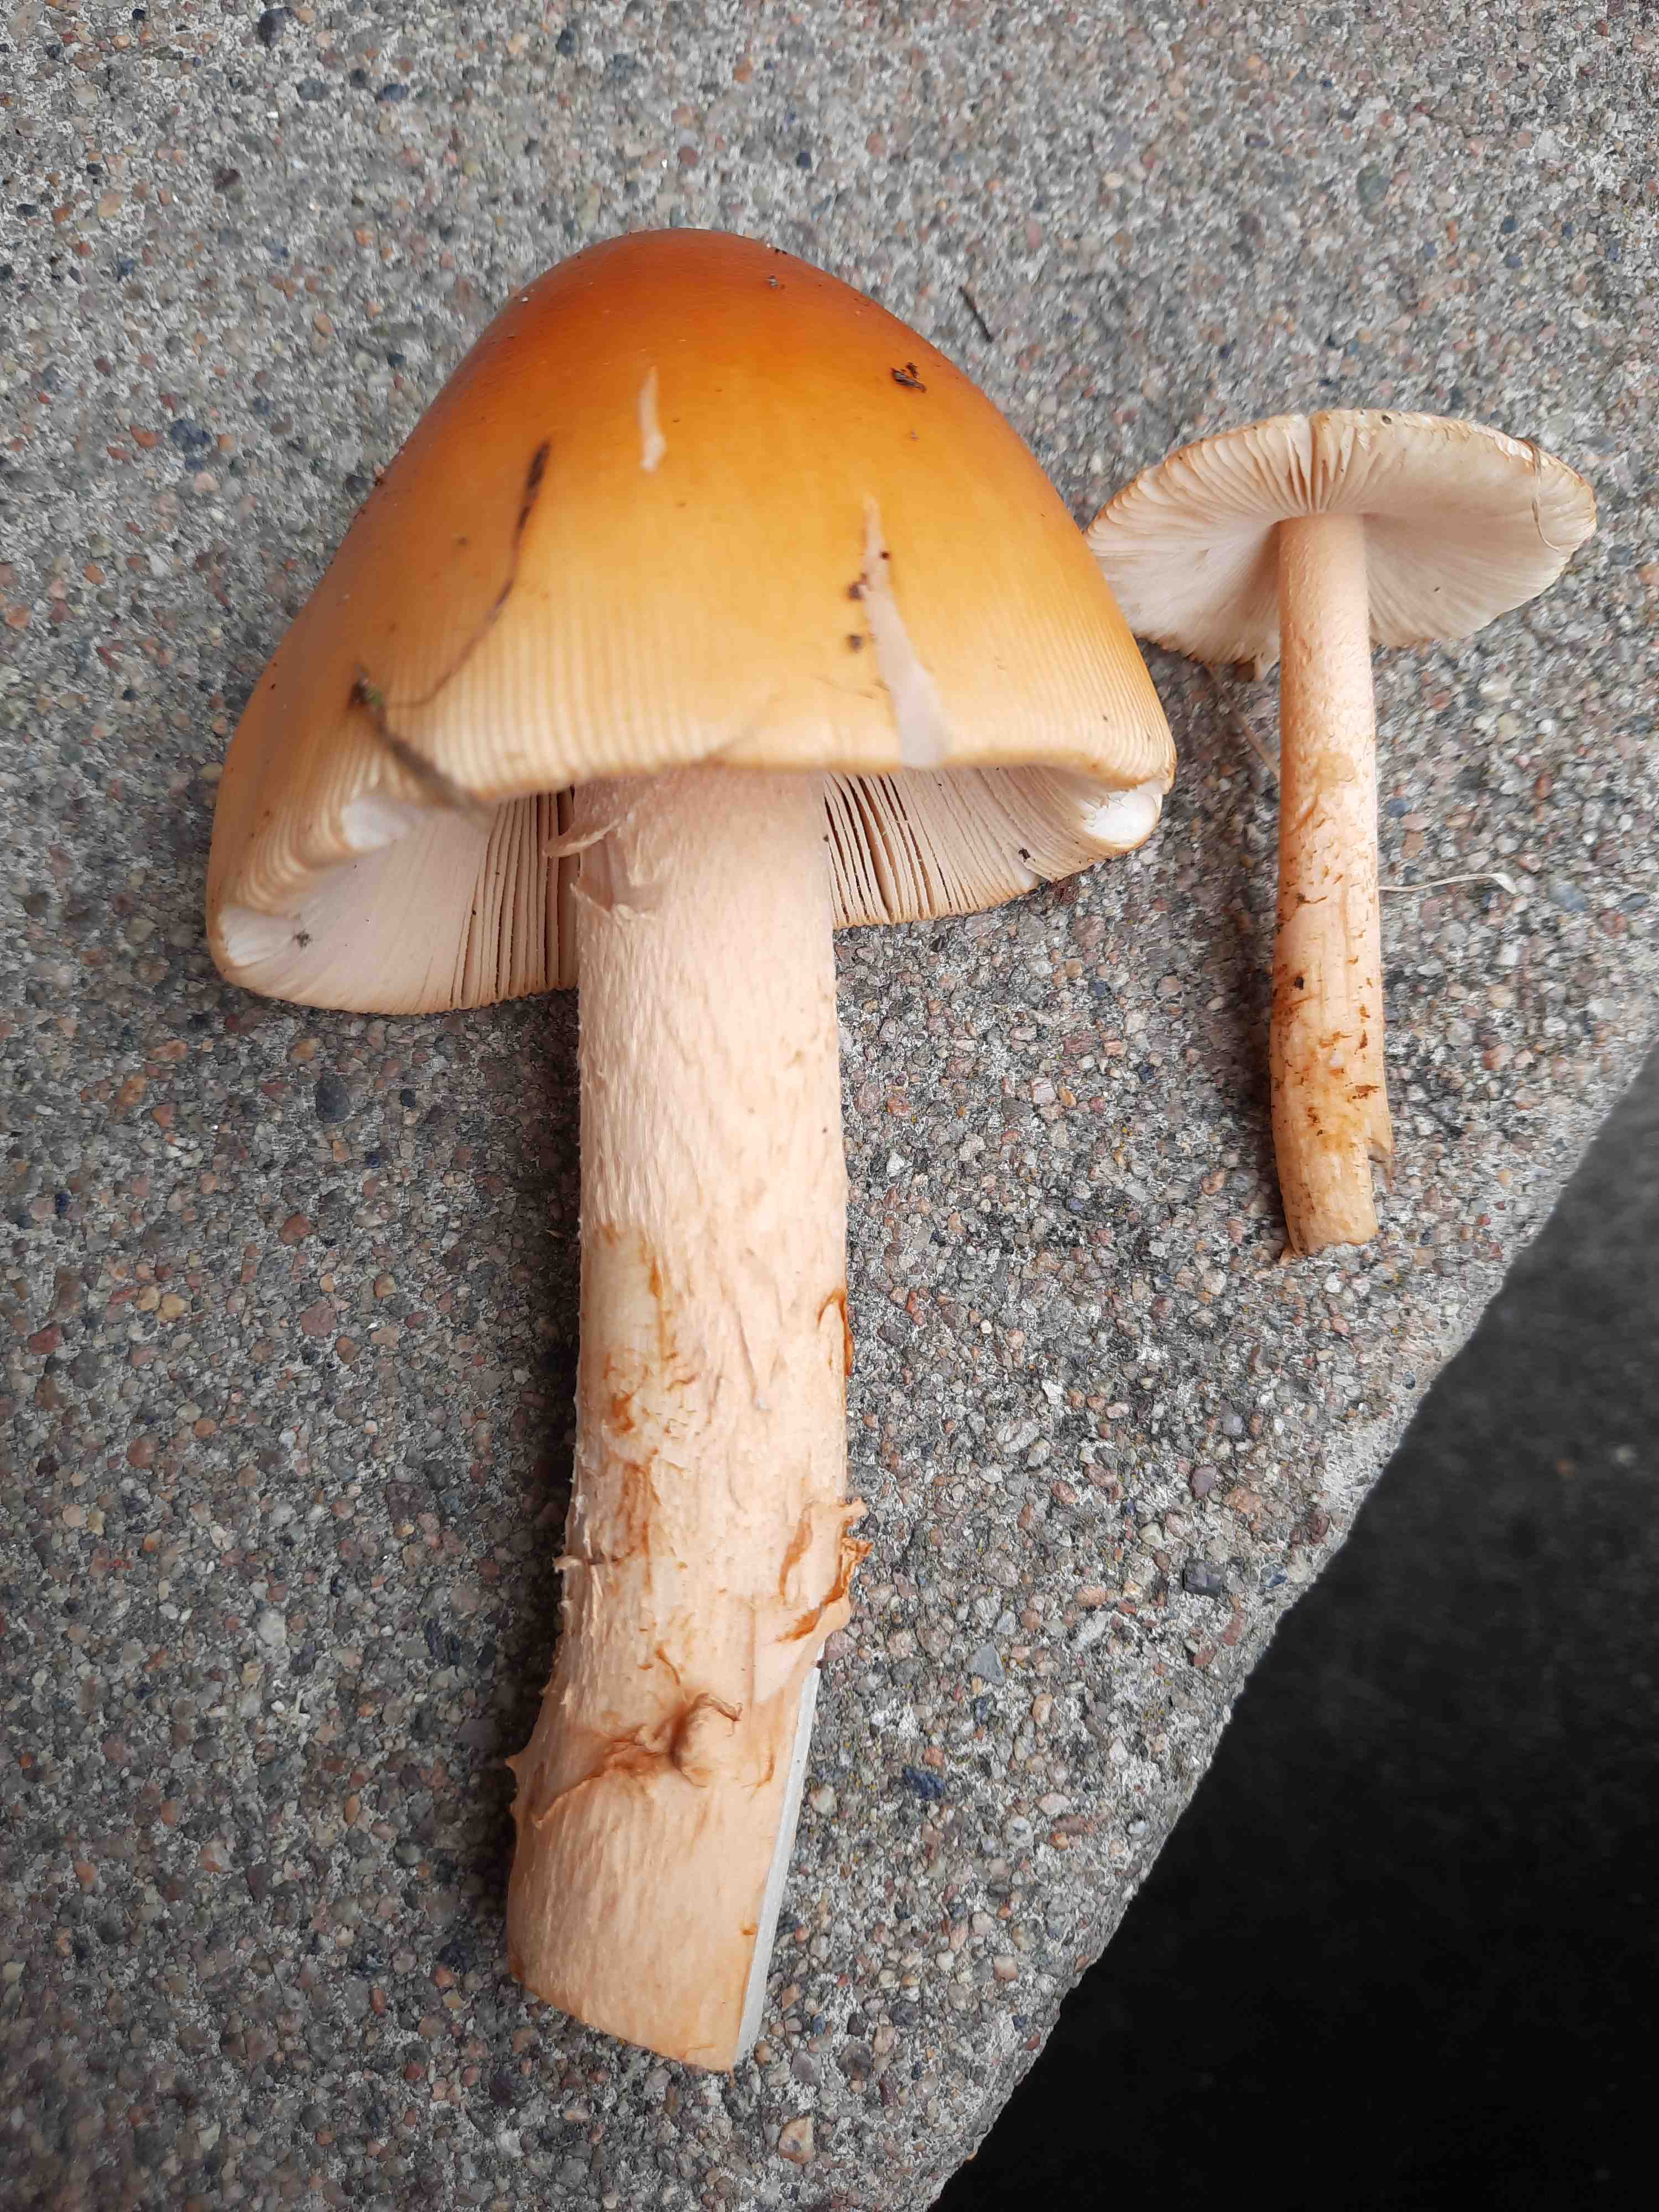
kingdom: Fungi
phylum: Basidiomycota
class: Agaricomycetes
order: Agaricales
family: Amanitaceae
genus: Amanita
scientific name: Amanita crocea
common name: gylden kam-fluesvamp
